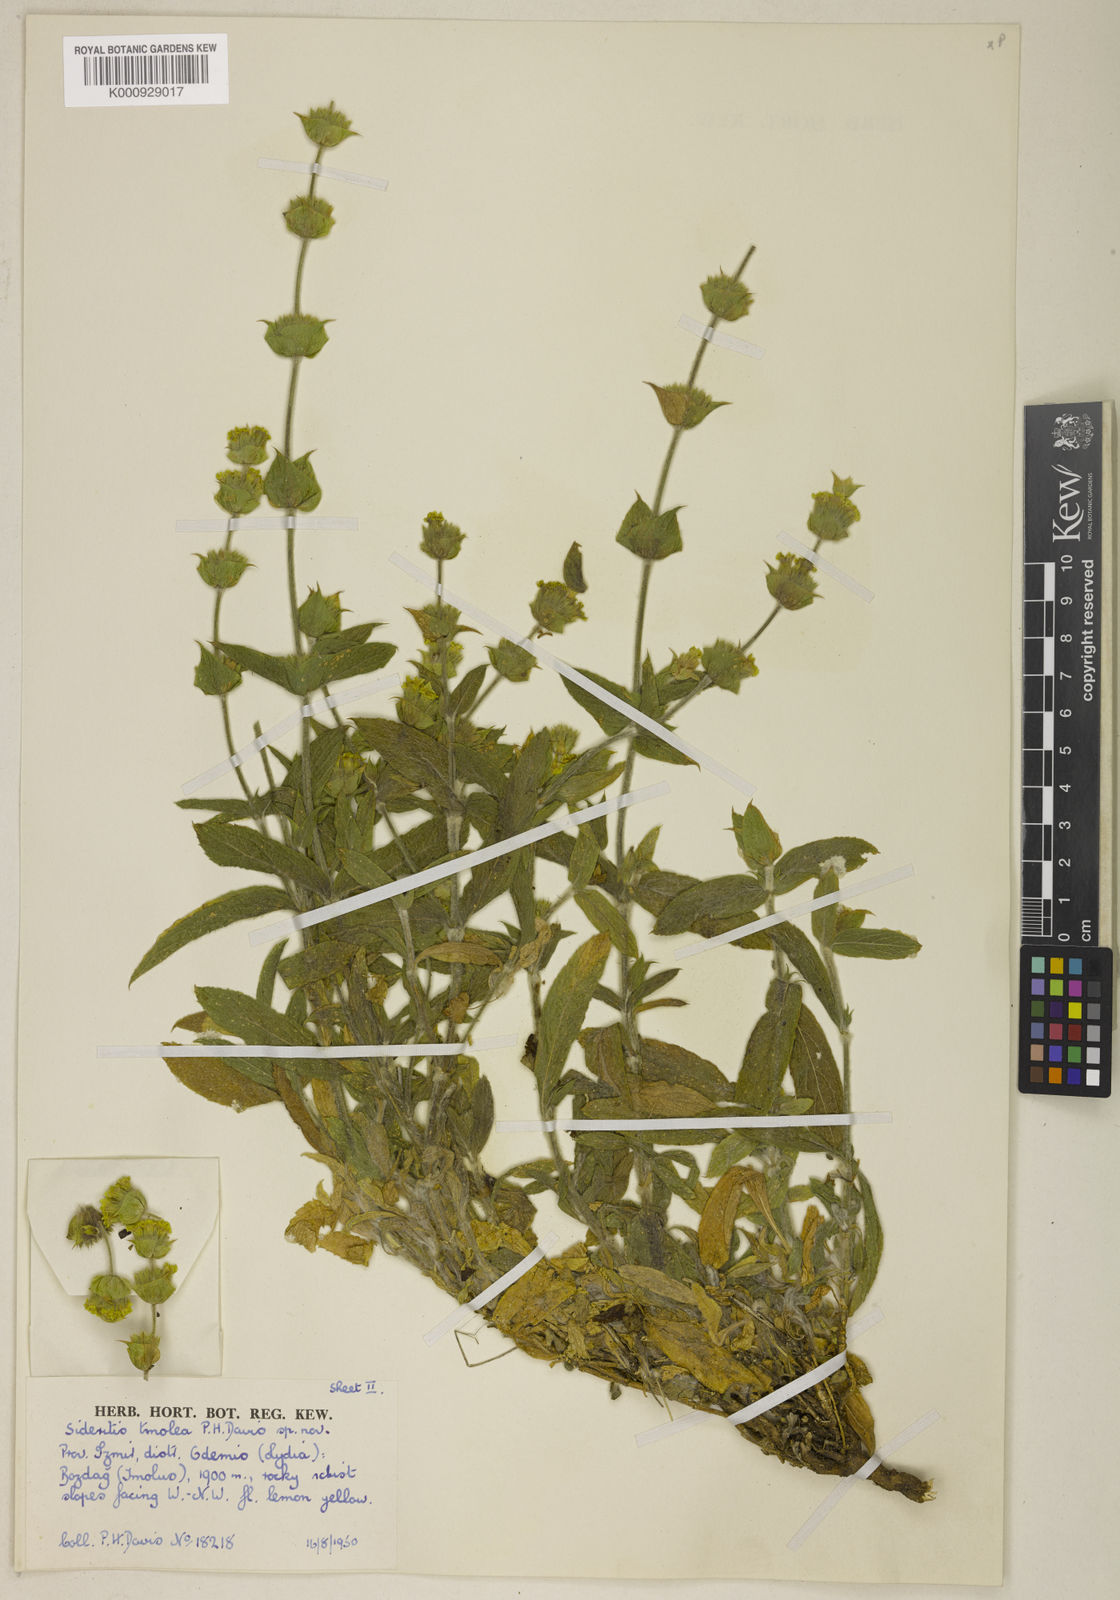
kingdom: Plantae
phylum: Tracheophyta
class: Magnoliopsida
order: Lamiales
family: Lamiaceae
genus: Sideritis
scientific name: Sideritis tmolea
